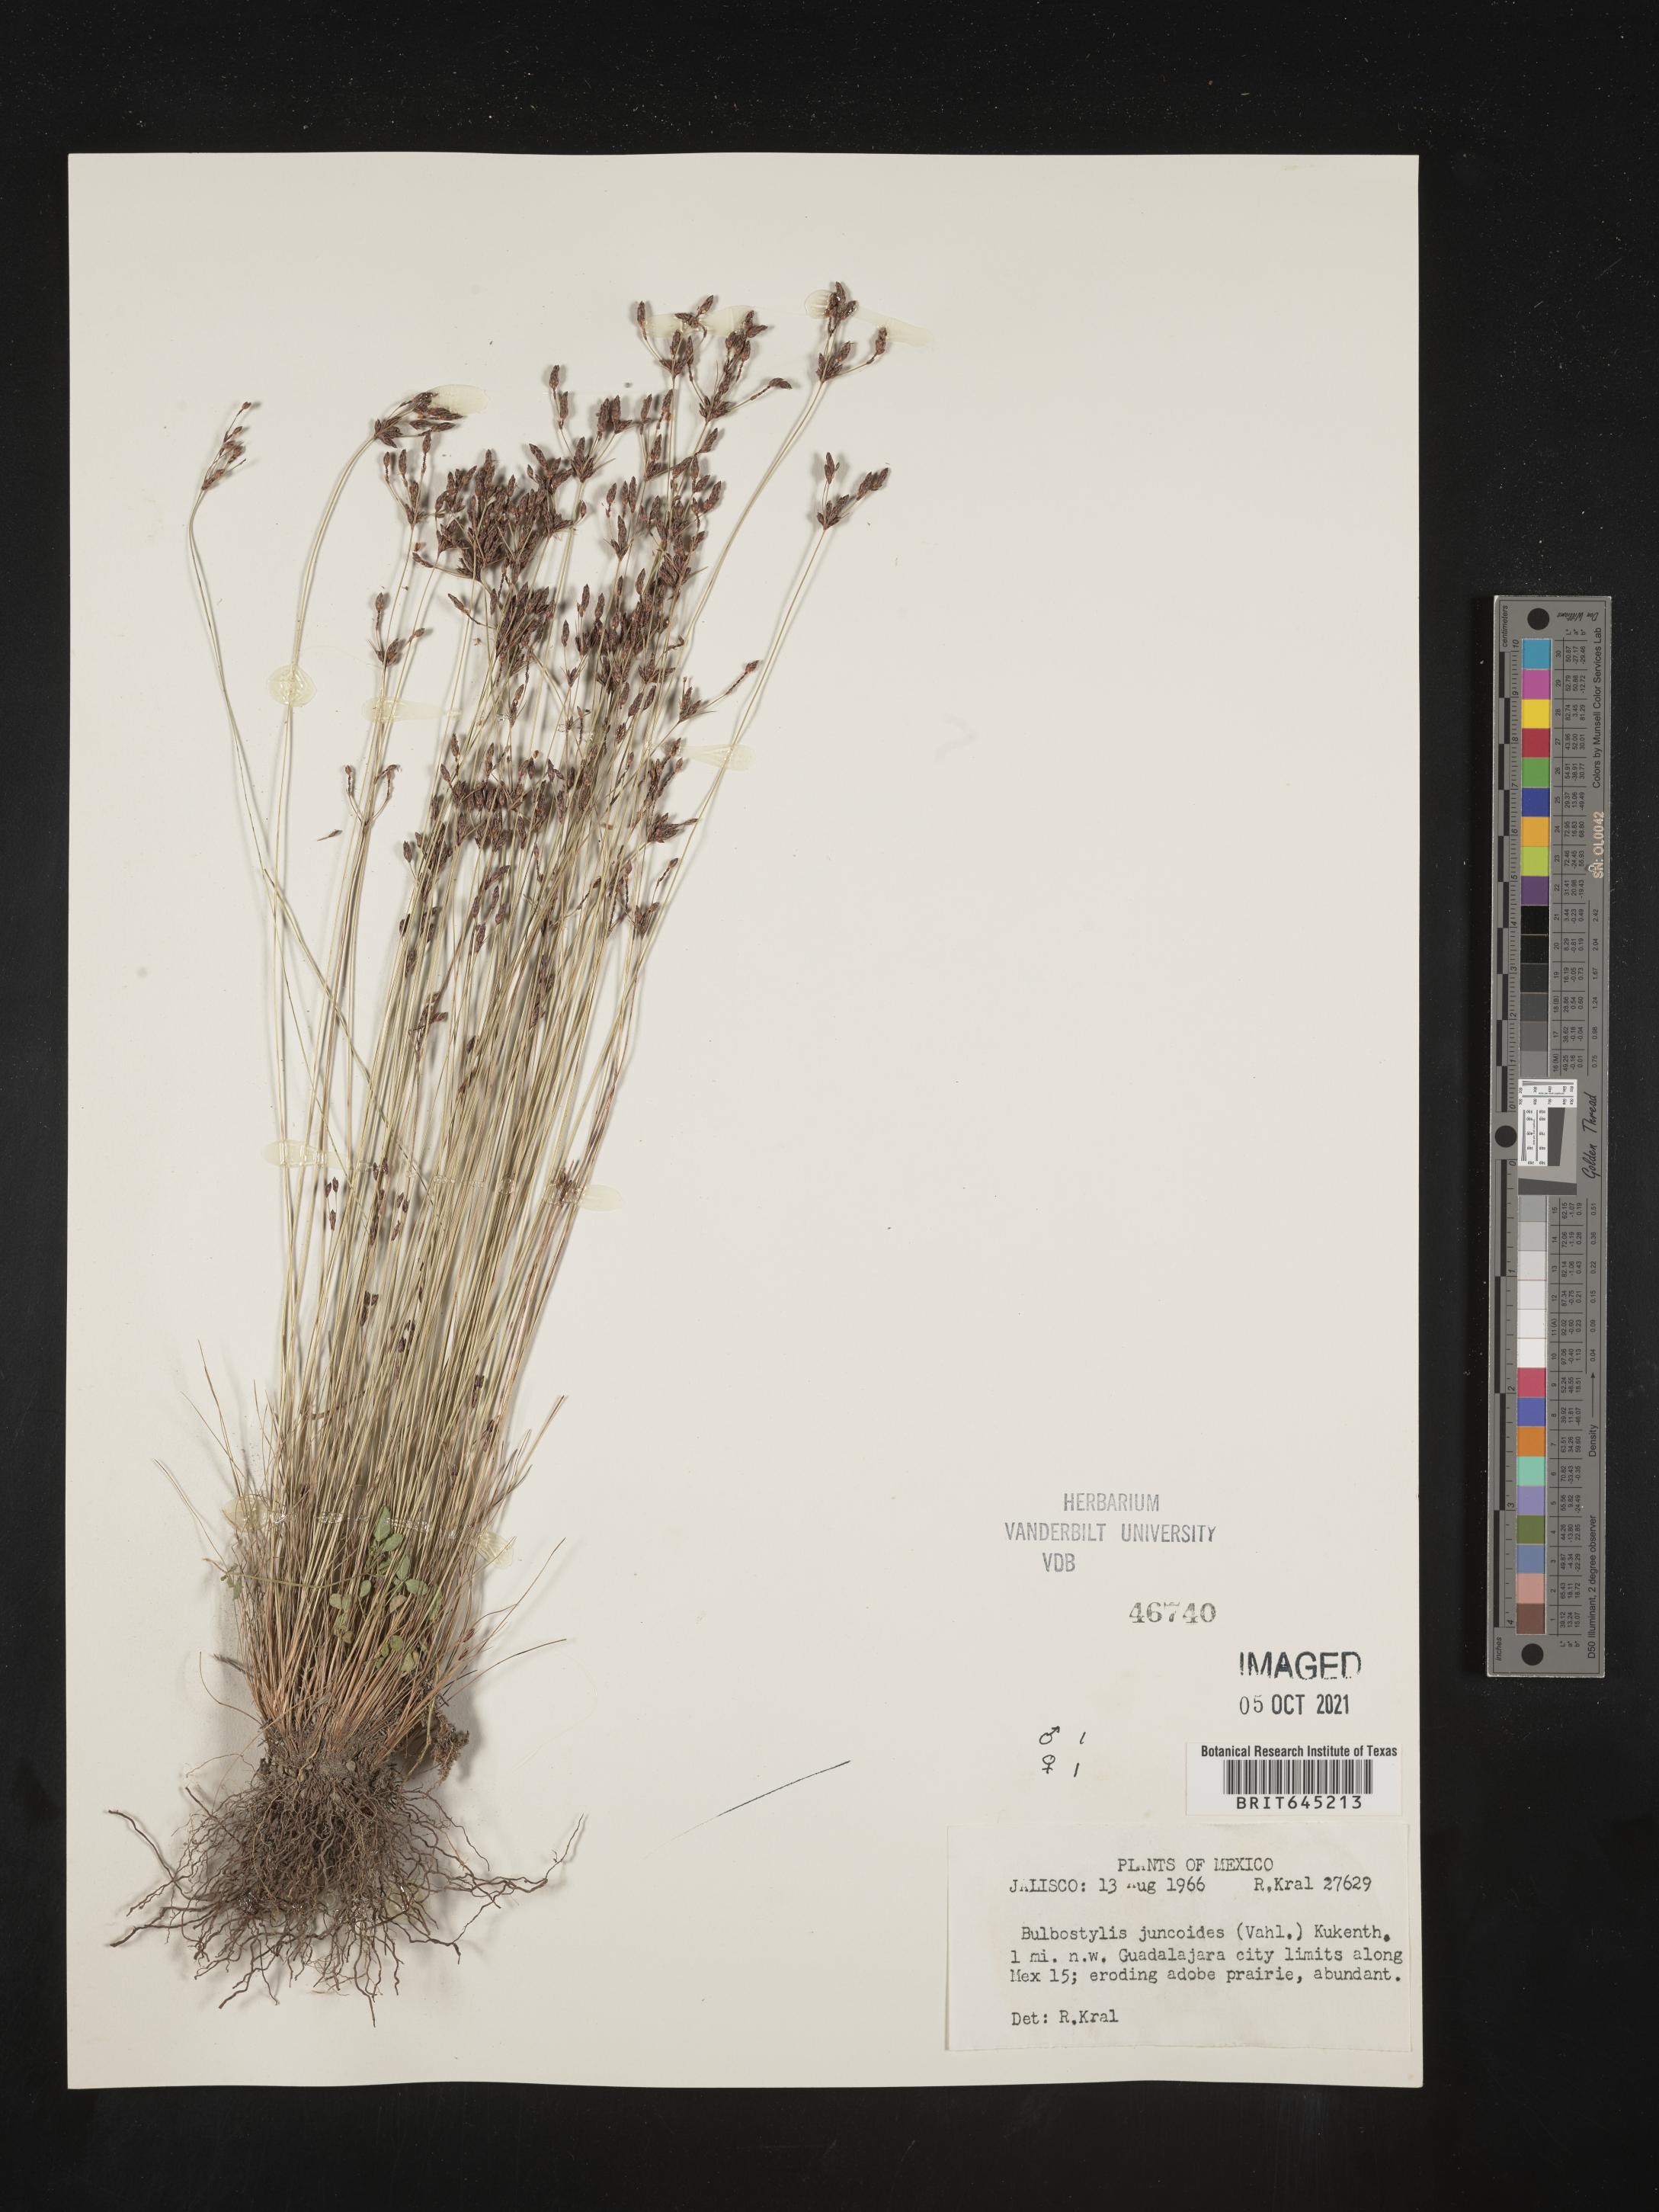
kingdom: Plantae
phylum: Tracheophyta
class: Liliopsida
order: Poales
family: Cyperaceae
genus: Bulbostylis
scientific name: Bulbostylis juncoides
